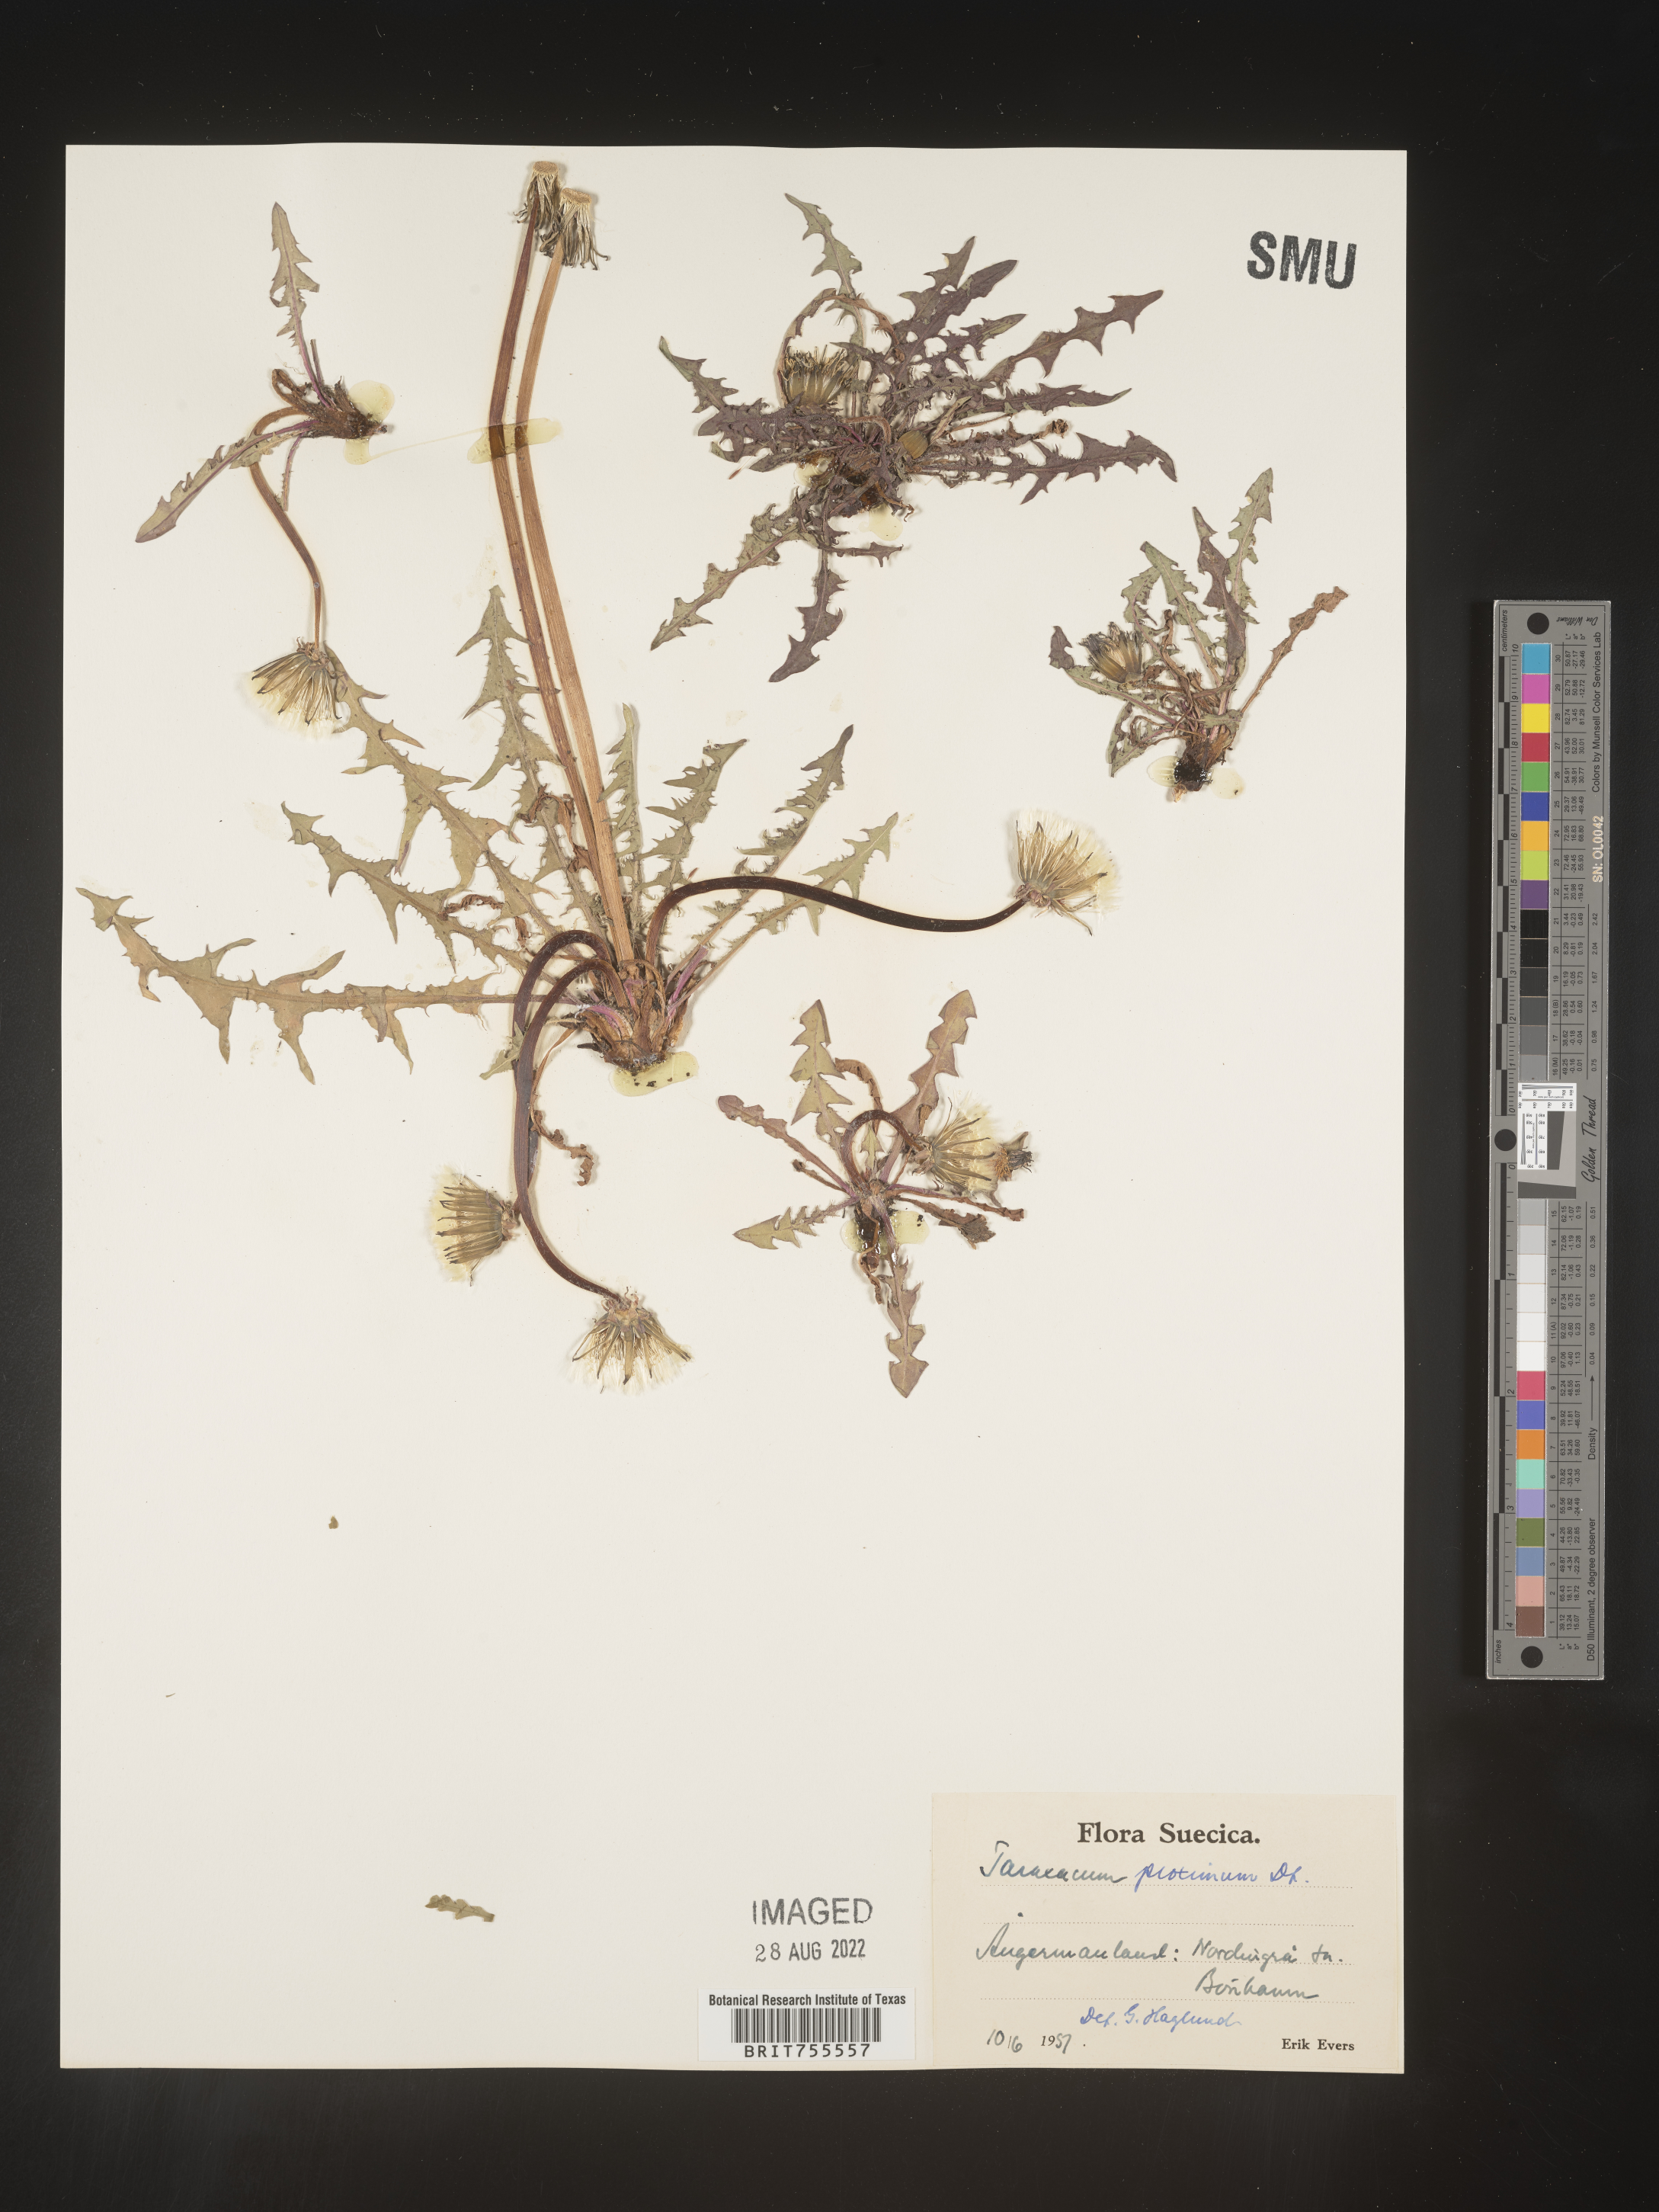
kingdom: Plantae
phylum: Tracheophyta
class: Magnoliopsida
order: Asterales
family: Asteraceae
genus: Taraxacum
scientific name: Taraxacum
